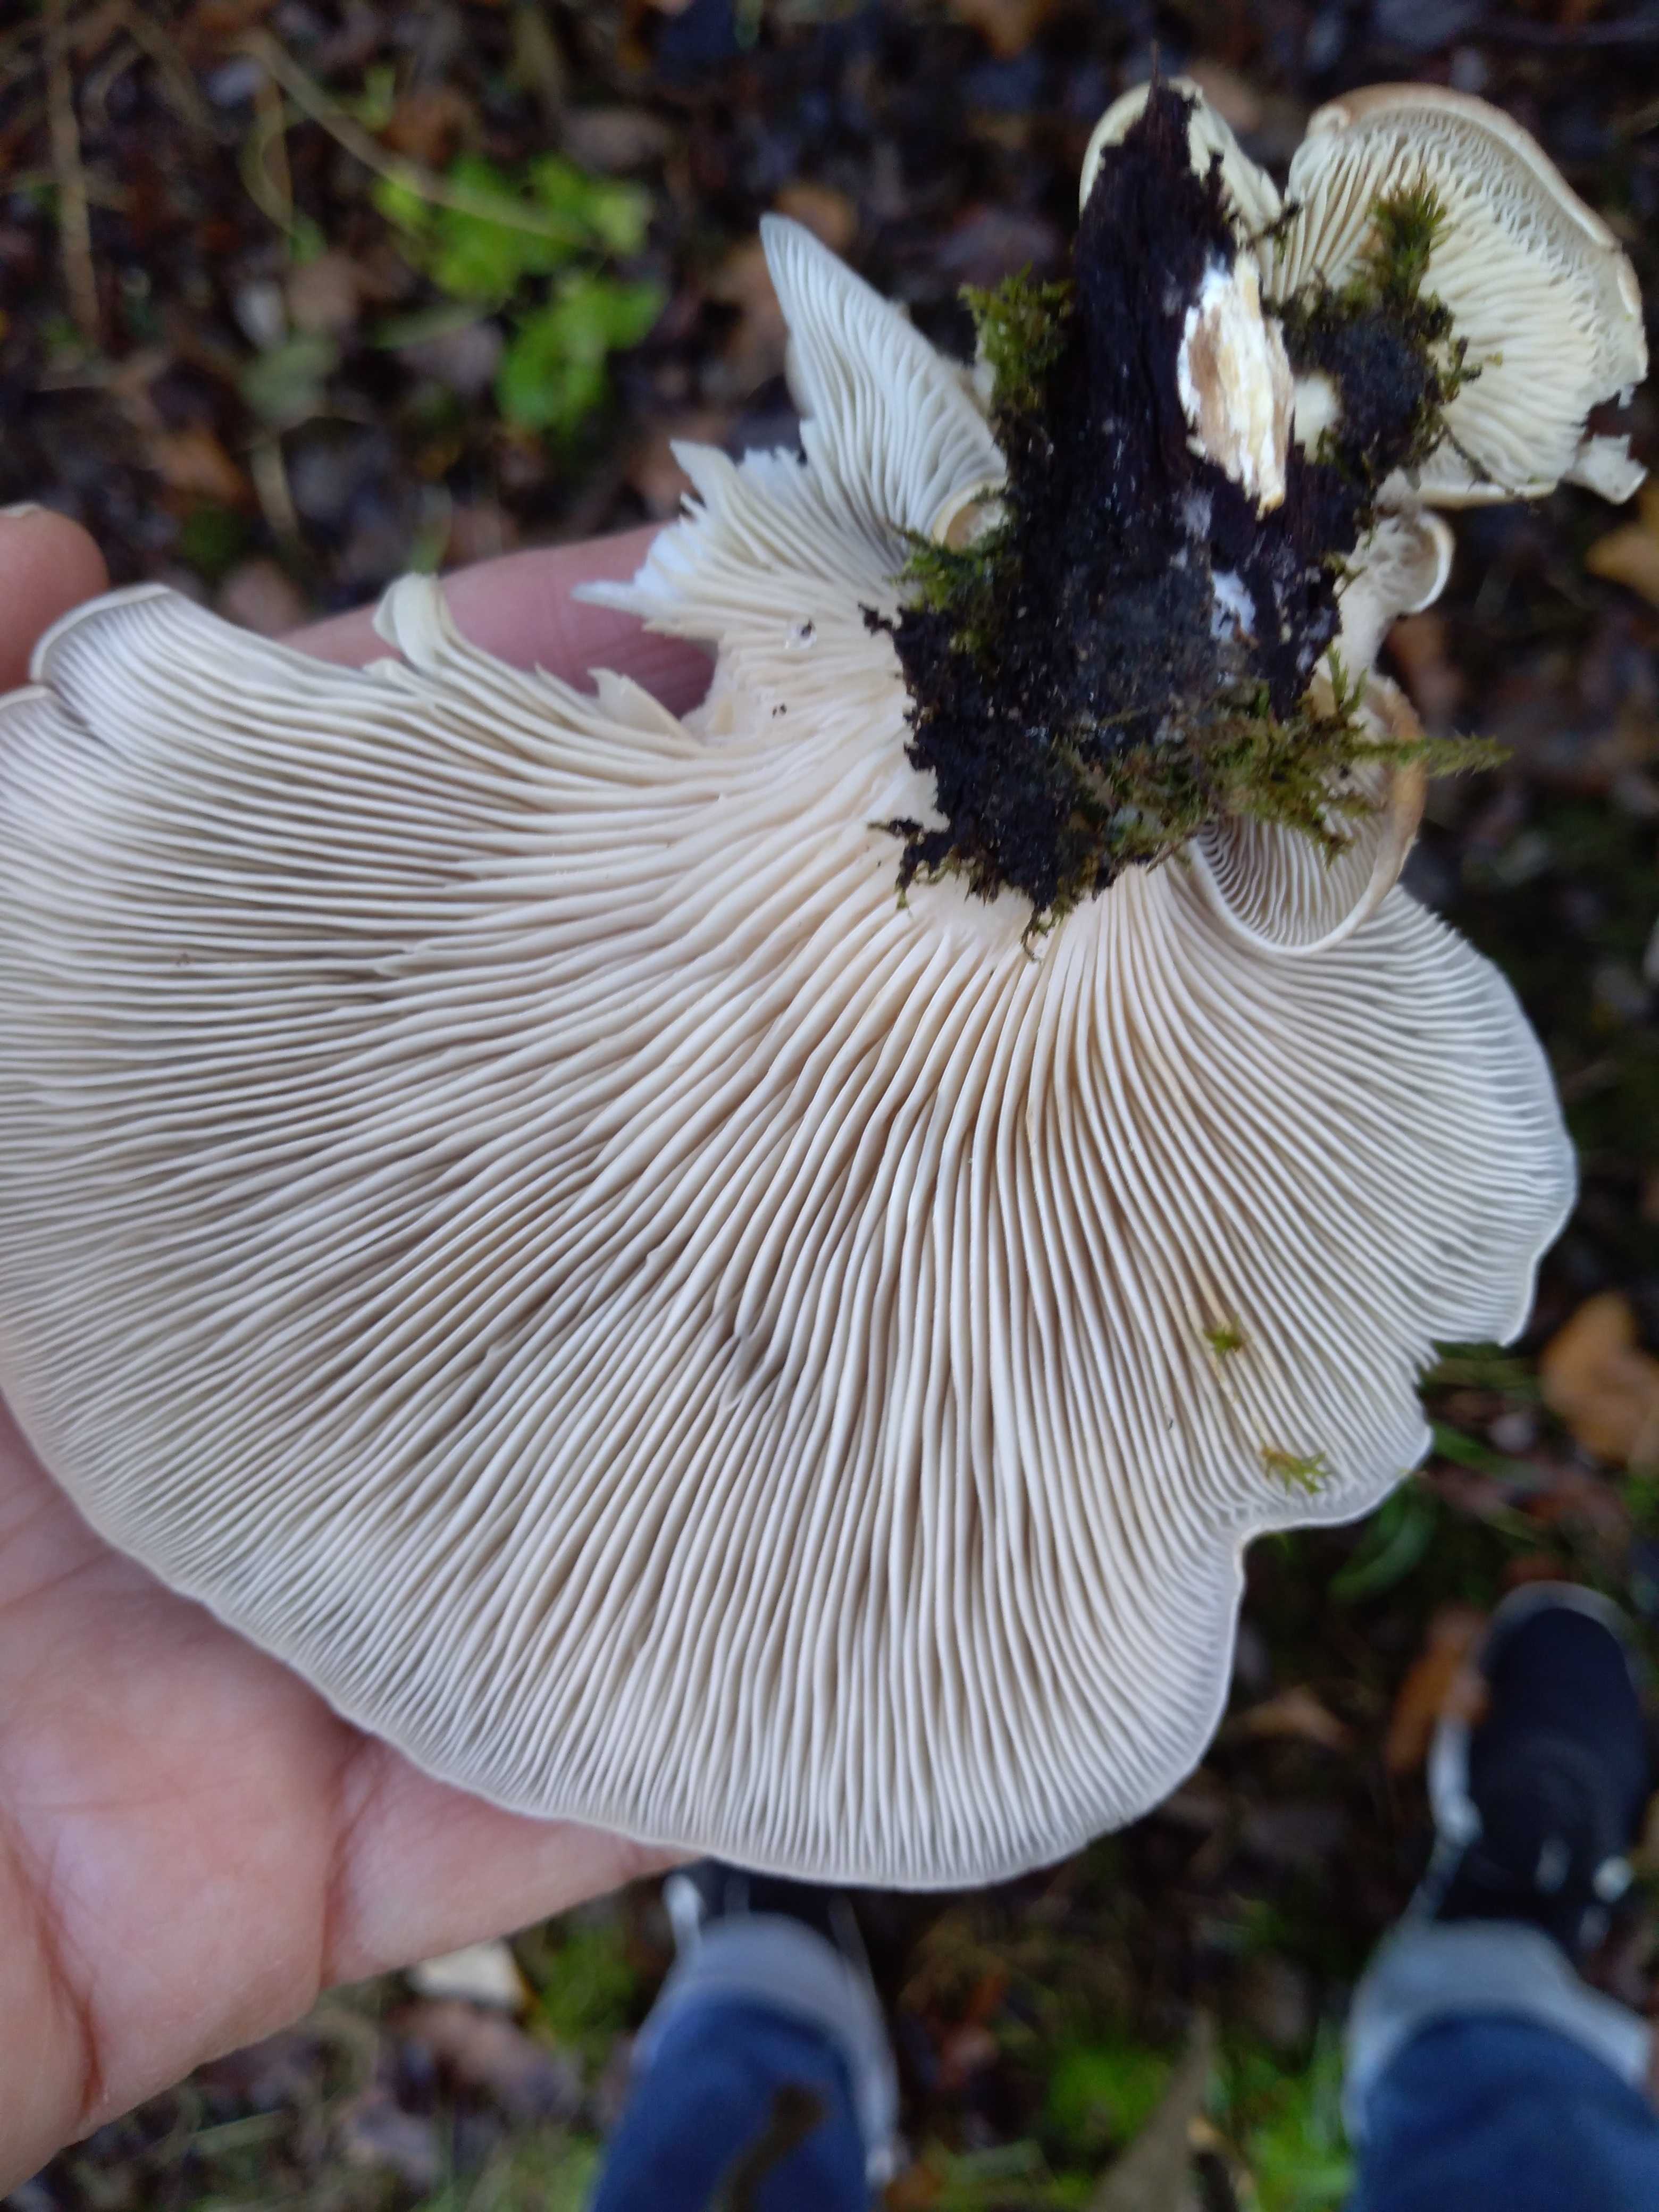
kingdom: Fungi
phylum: Basidiomycota
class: Agaricomycetes
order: Agaricales
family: Pleurotaceae
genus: Pleurotus
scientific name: Pleurotus ostreatus
